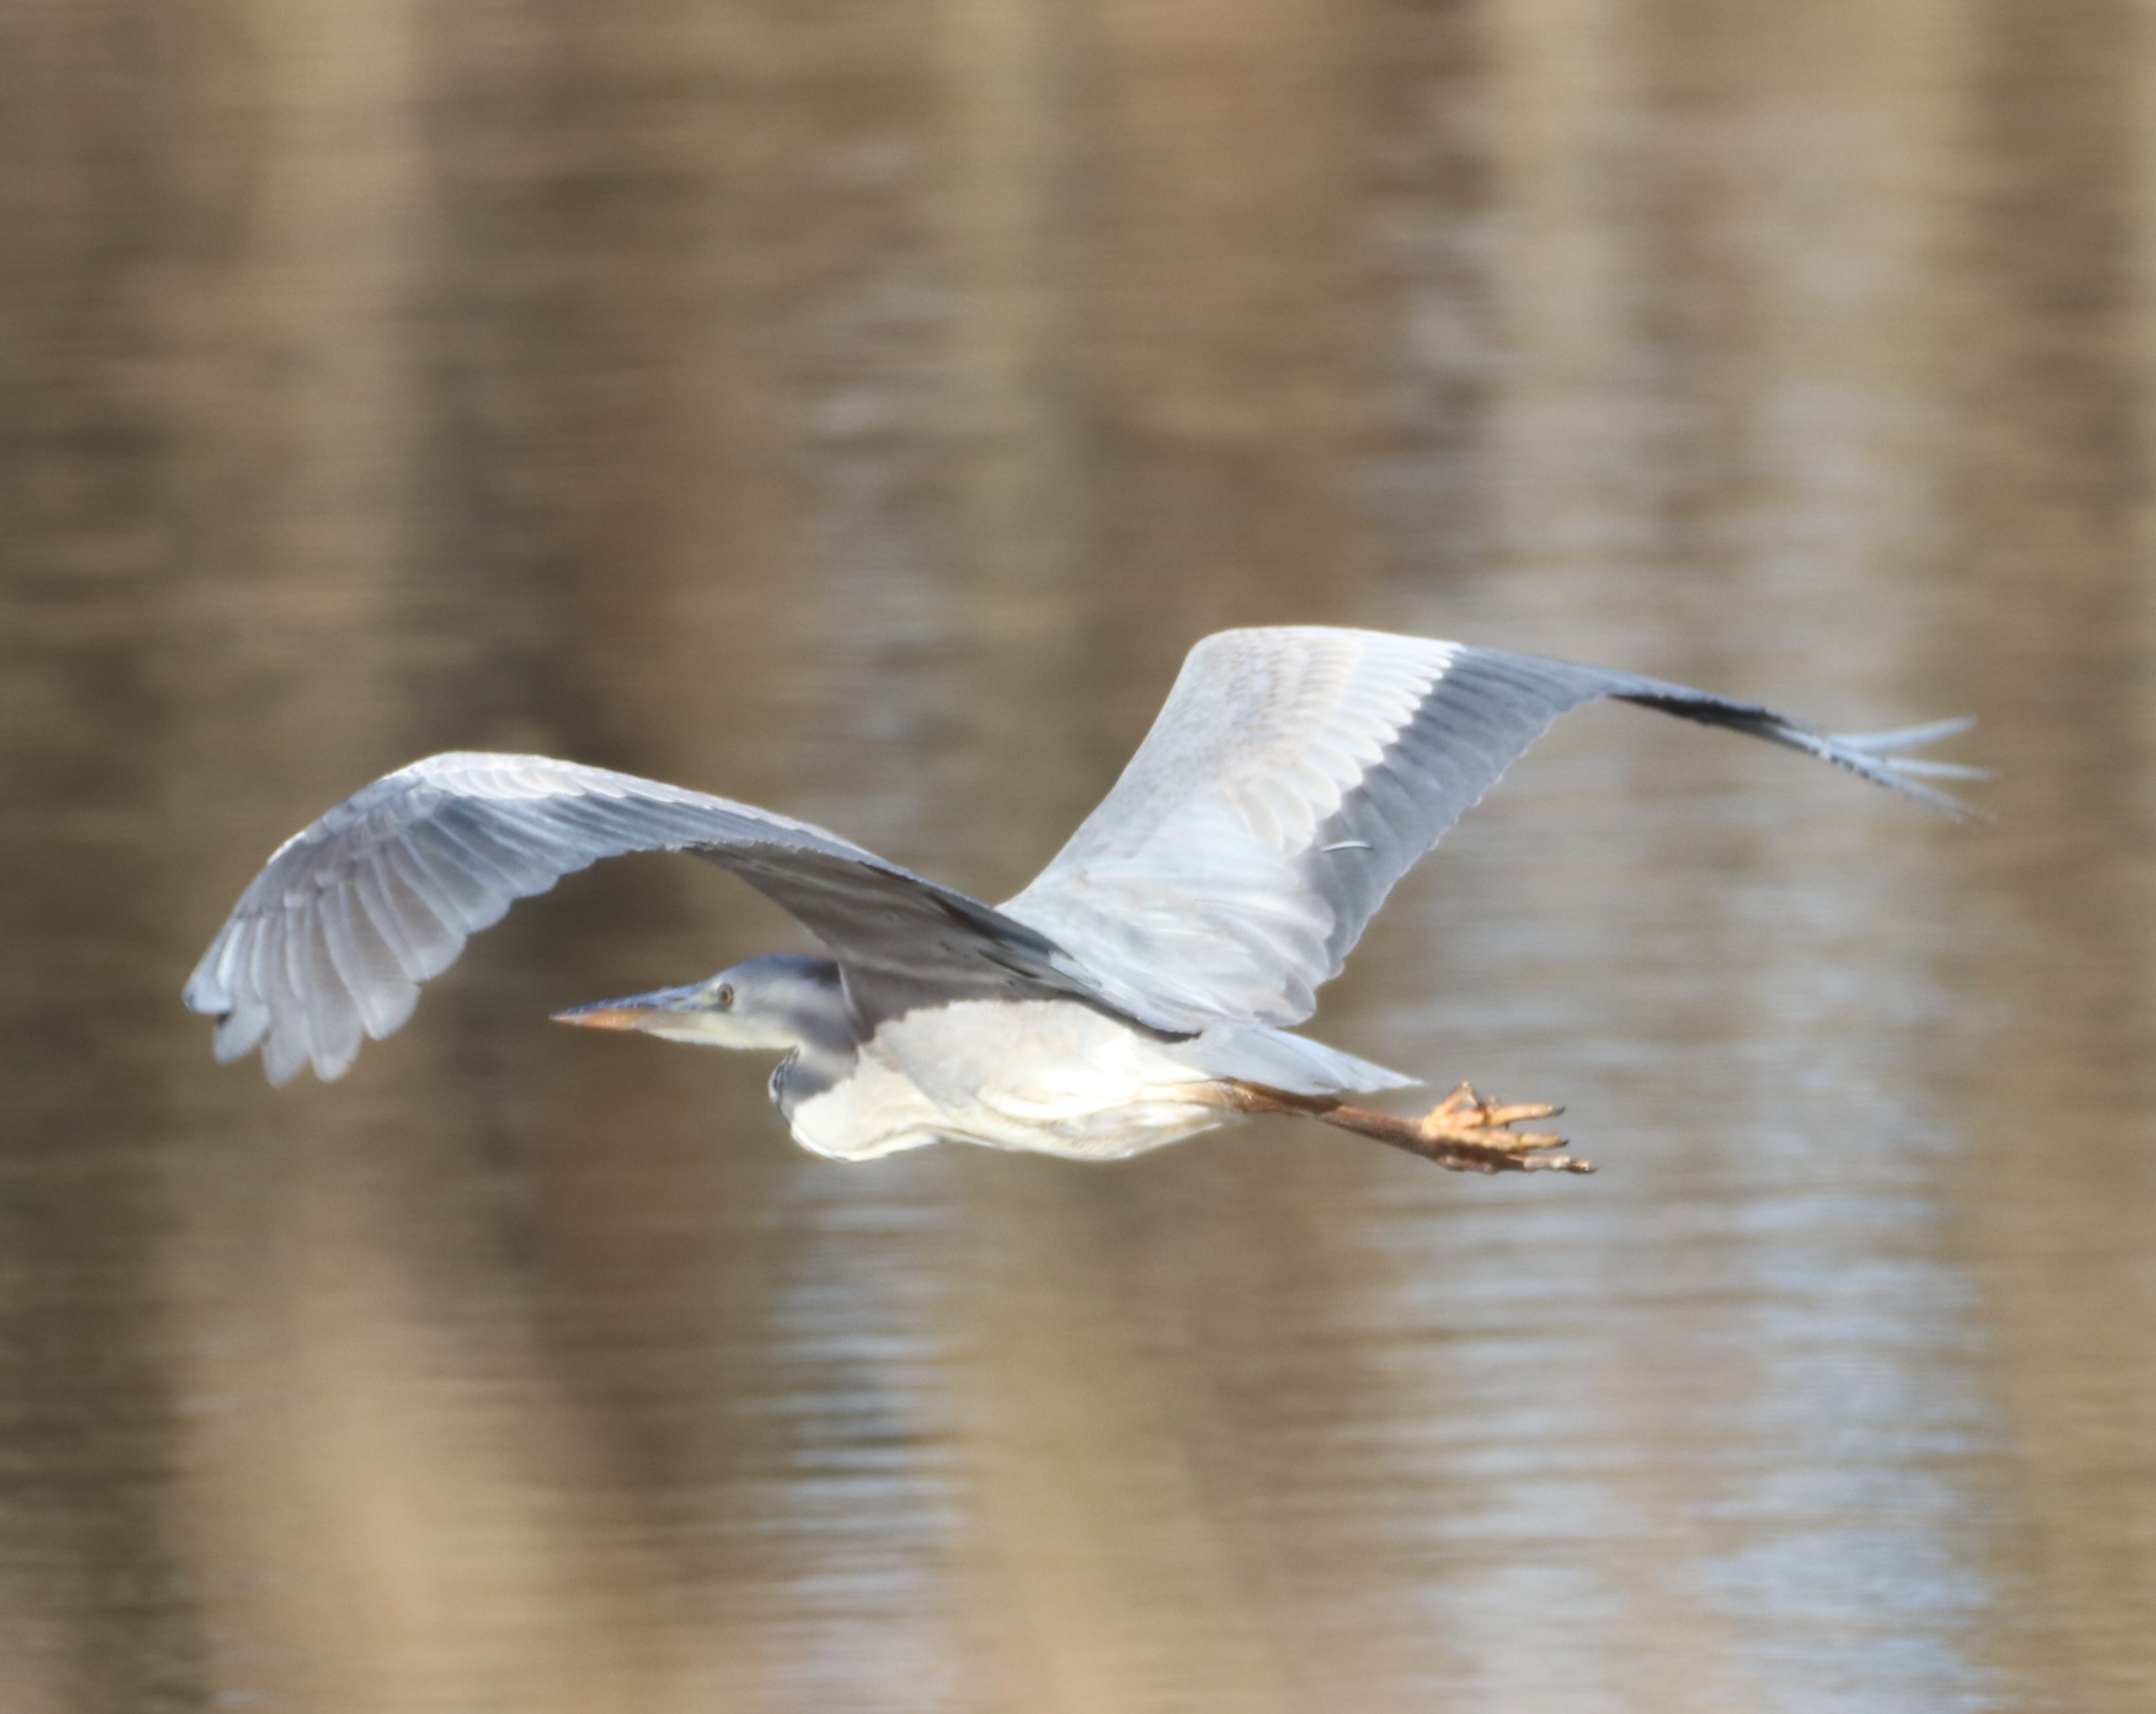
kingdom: Animalia
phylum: Chordata
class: Aves
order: Pelecaniformes
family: Ardeidae
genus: Ardea
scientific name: Ardea cinerea
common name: Fiskehejre
